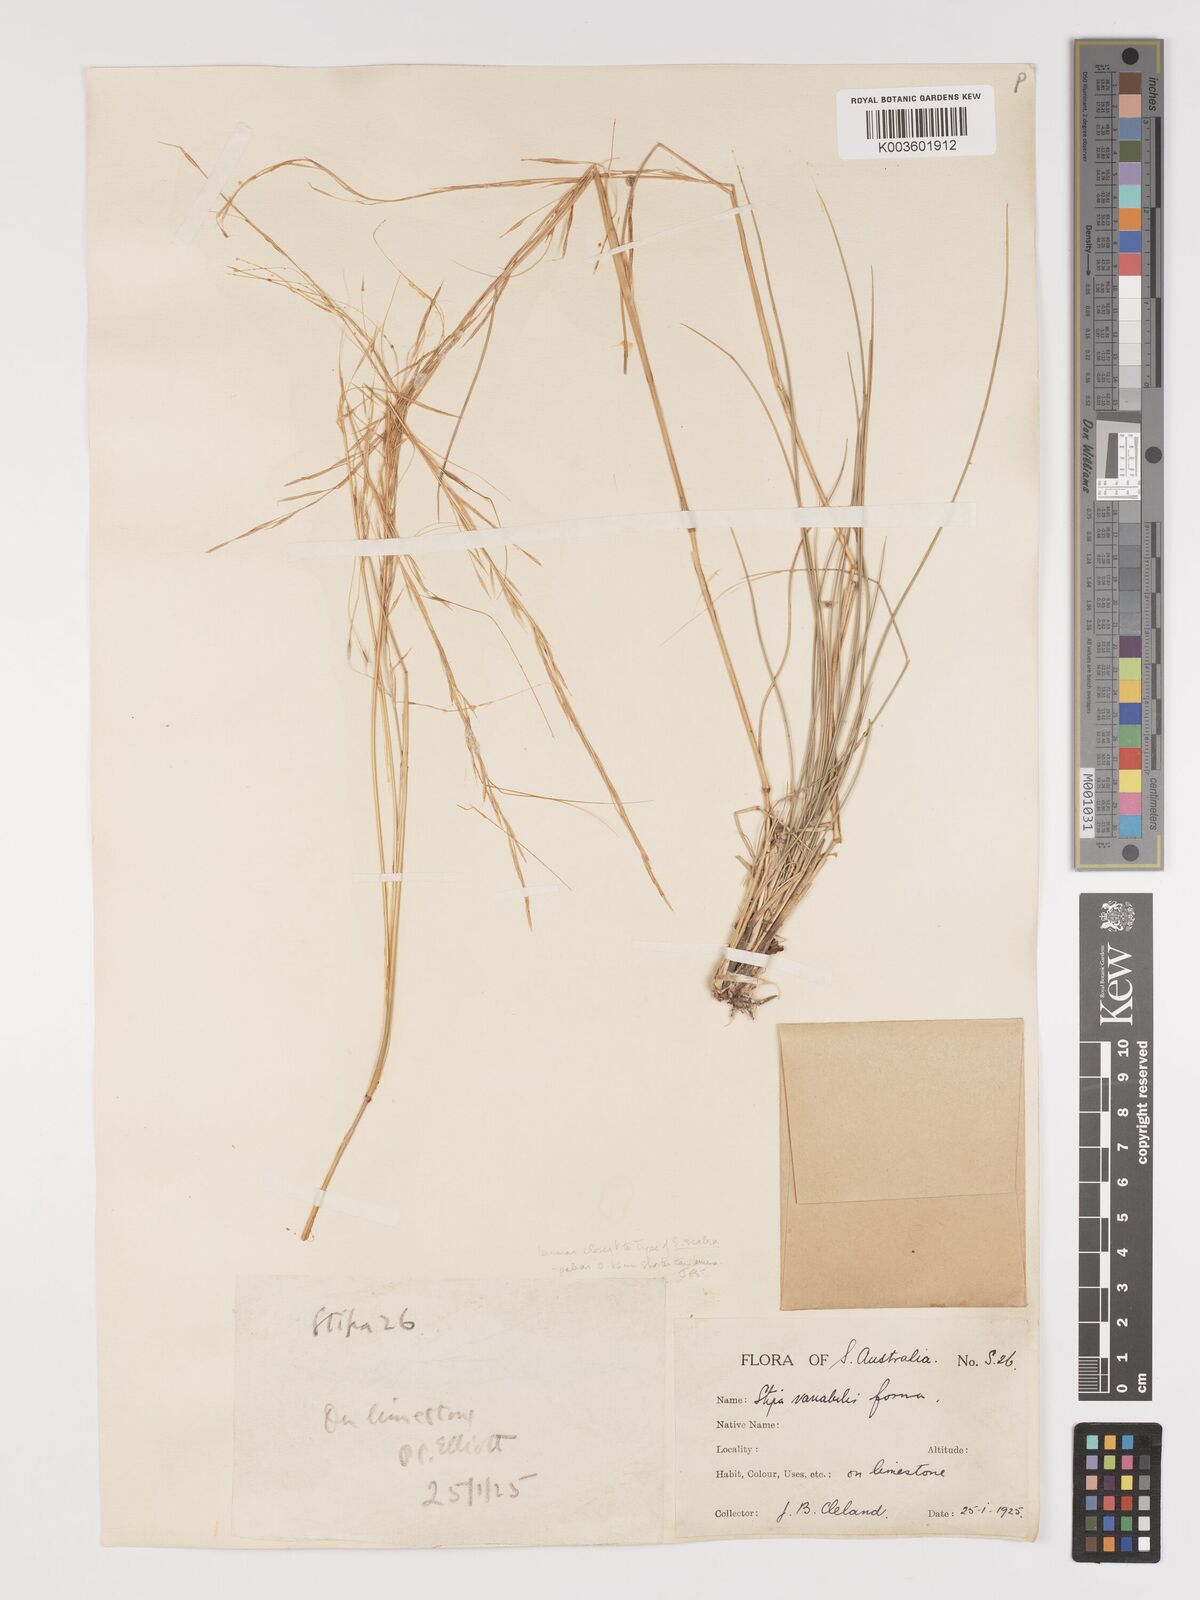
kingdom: Plantae
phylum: Tracheophyta
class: Liliopsida
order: Poales
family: Poaceae
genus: Austrostipa
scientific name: Austrostipa nodosa
